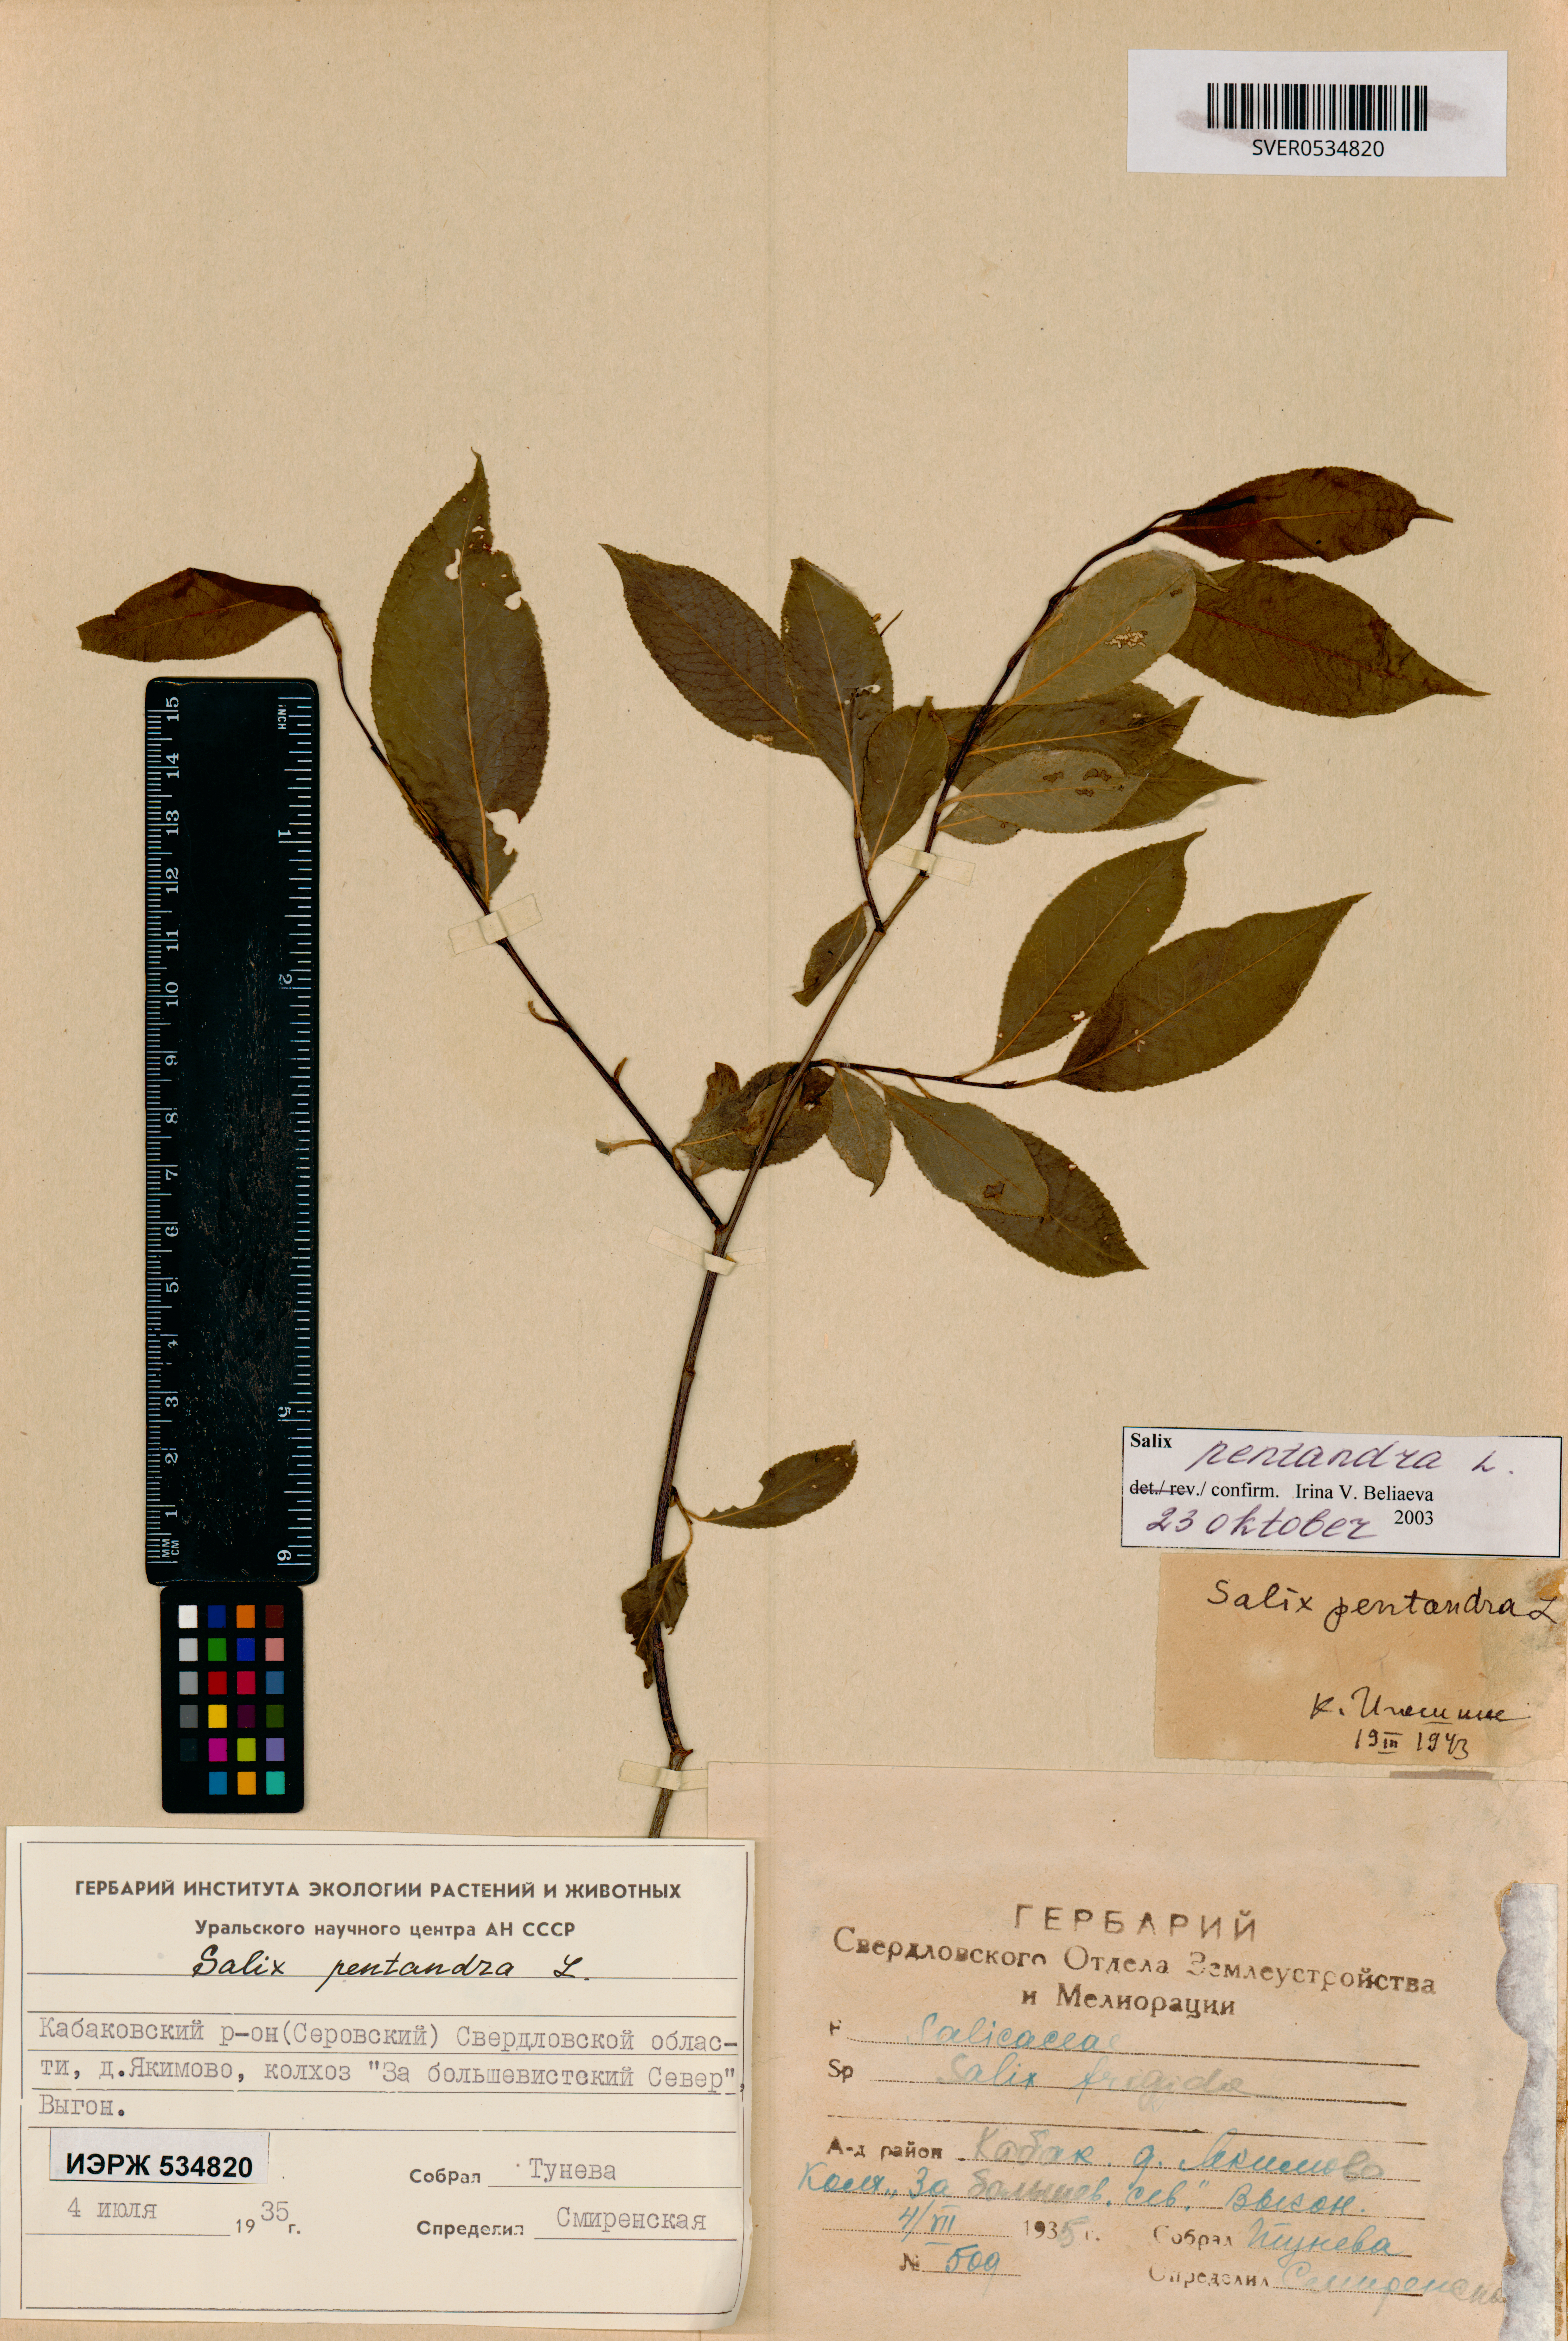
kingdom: Plantae
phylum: Tracheophyta
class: Magnoliopsida
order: Malpighiales
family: Salicaceae
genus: Salix
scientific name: Salix pentandra
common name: Bay willow
